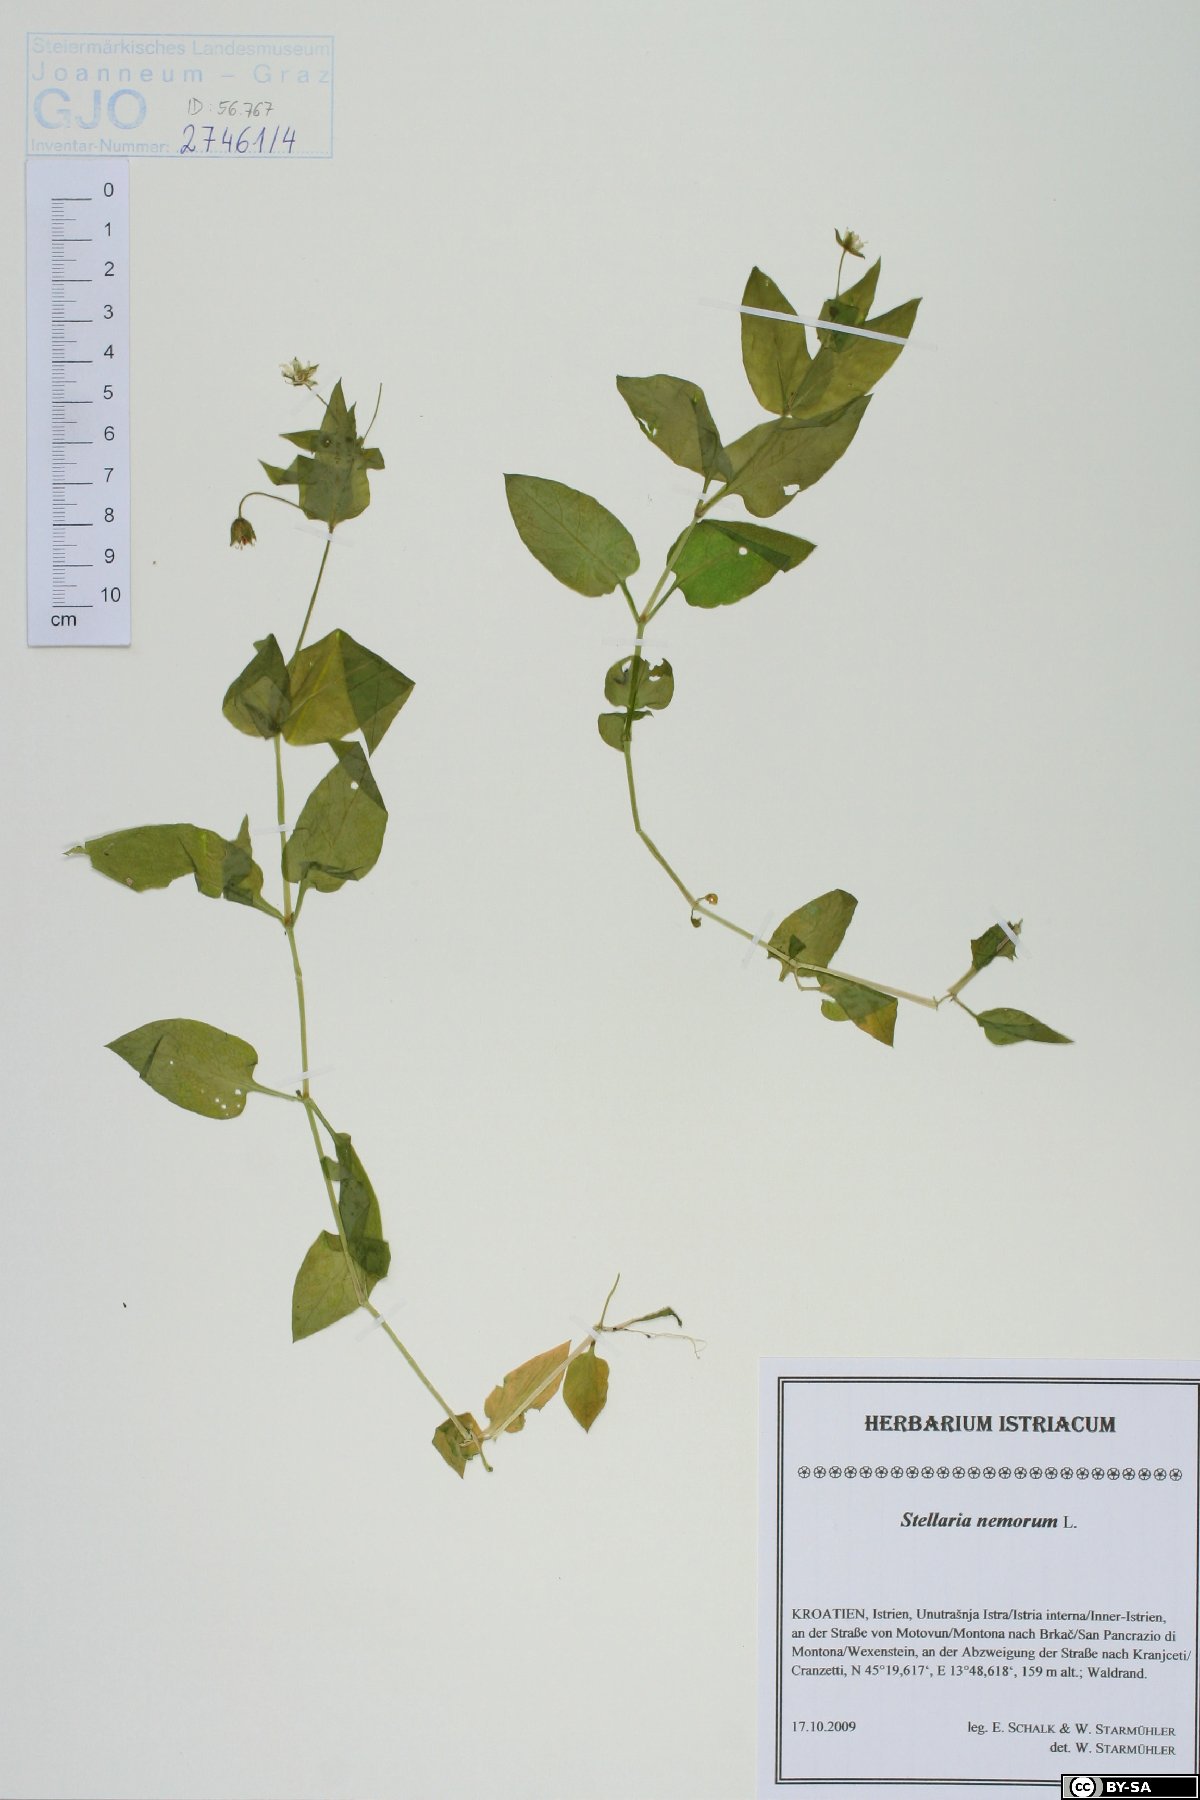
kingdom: Plantae
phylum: Tracheophyta
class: Magnoliopsida
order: Caryophyllales
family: Caryophyllaceae
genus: Stellaria
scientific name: Stellaria nemorum
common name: Wood stitchwort
